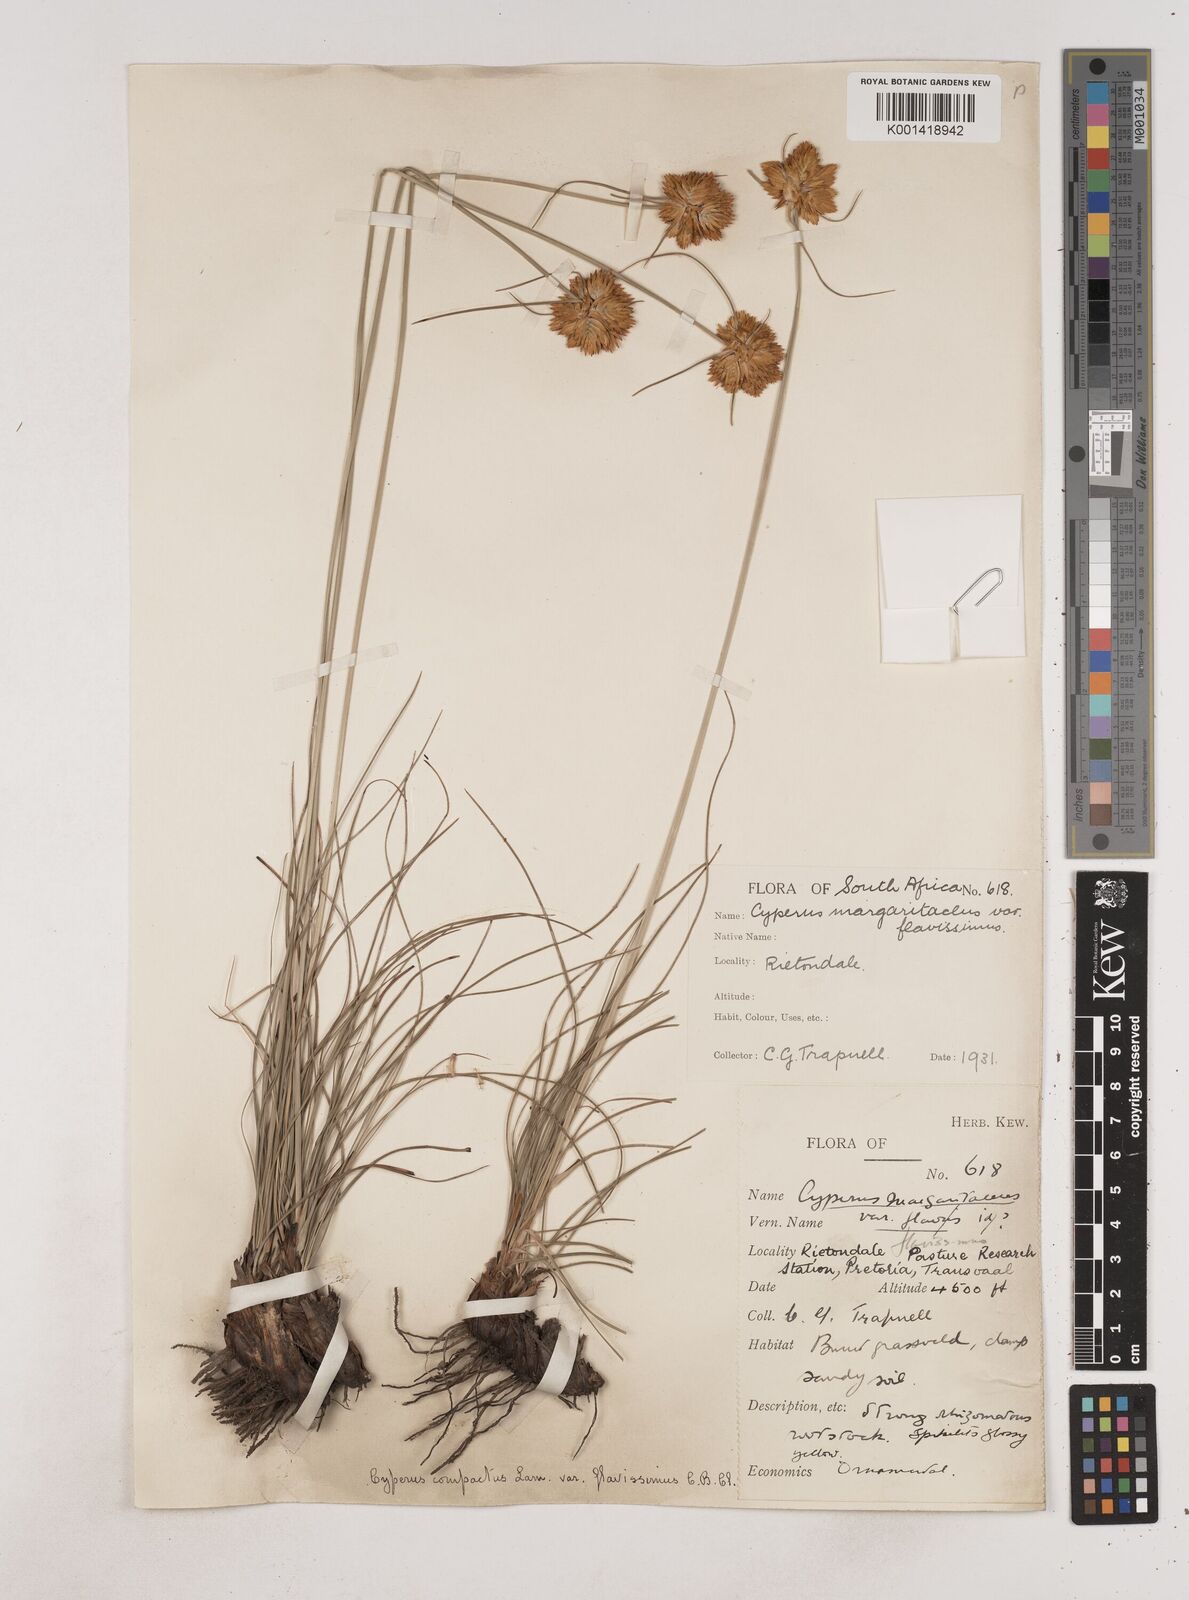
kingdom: Plantae
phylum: Tracheophyta
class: Liliopsida
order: Poales
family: Cyperaceae
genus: Cyperus
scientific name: Cyperus sphaerocephalus
